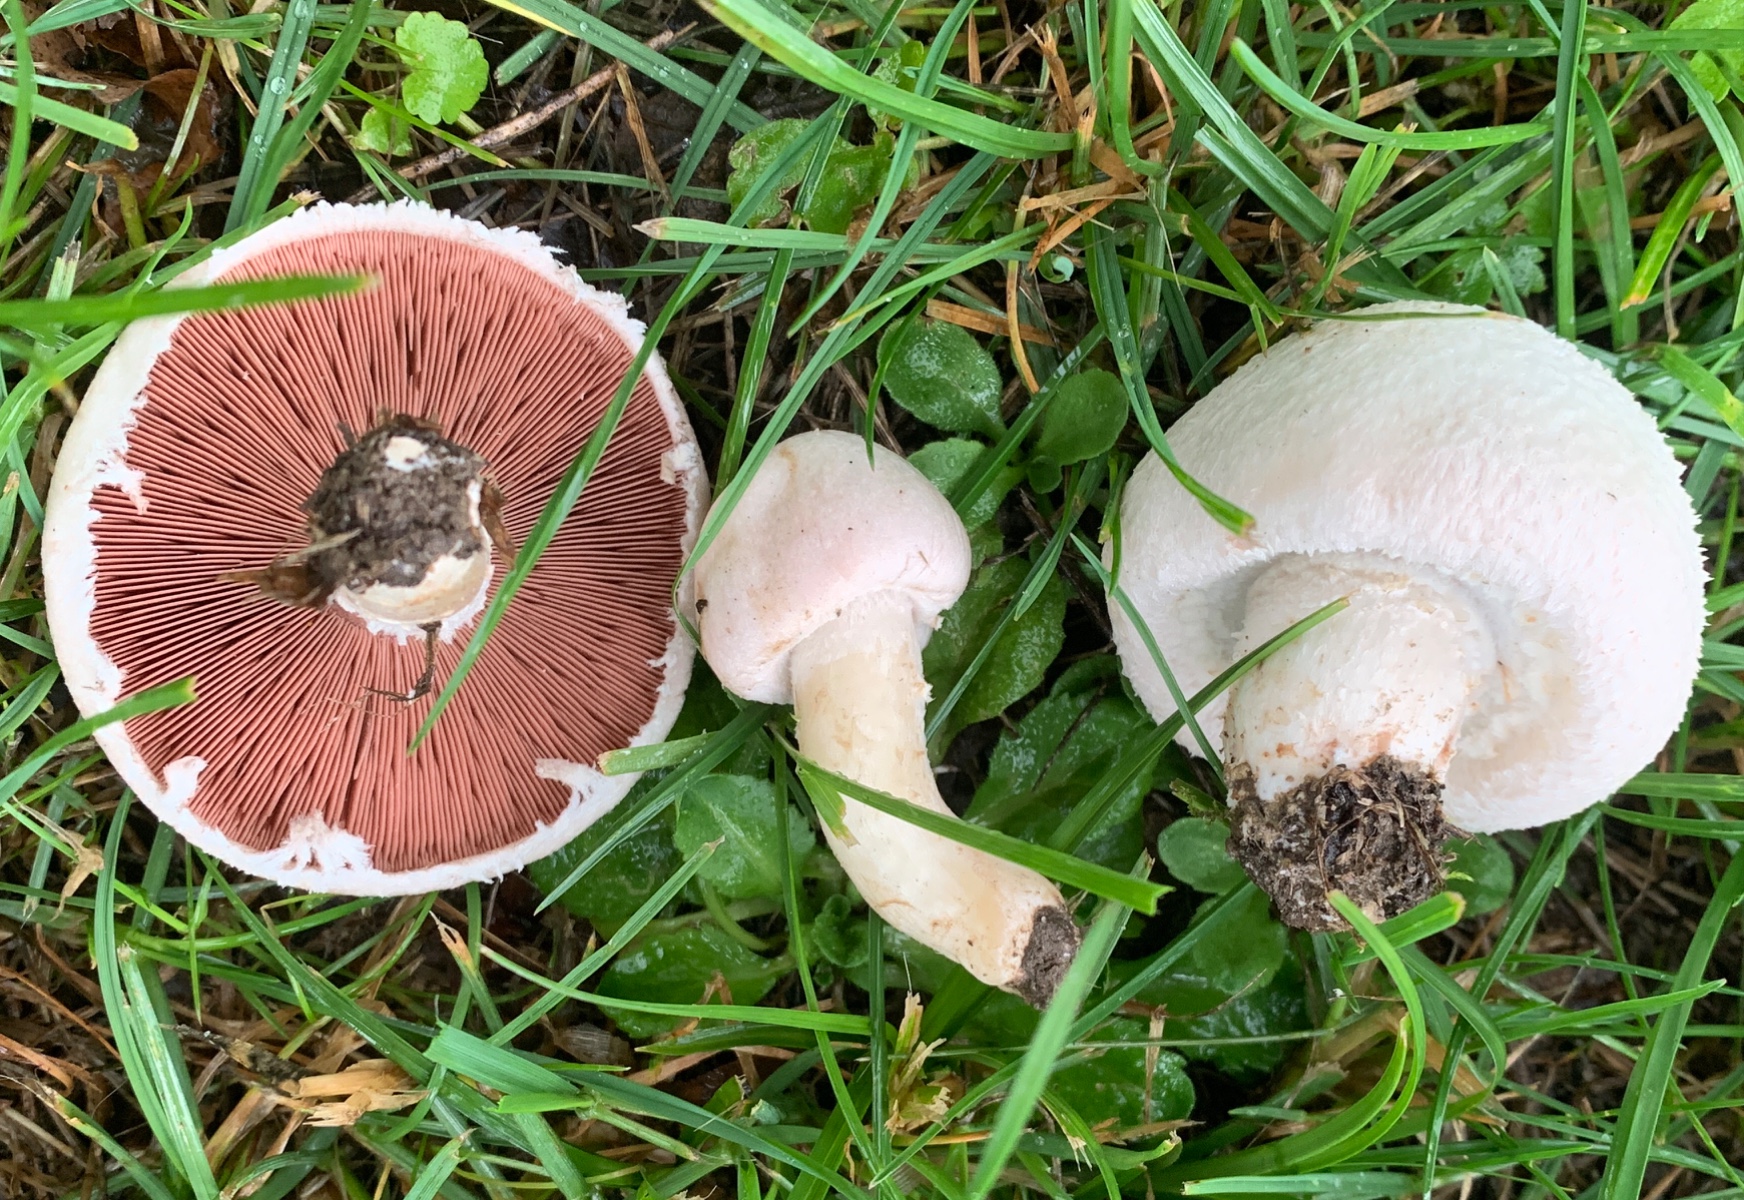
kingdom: Fungi
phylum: Basidiomycota
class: Agaricomycetes
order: Agaricales
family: Agaricaceae
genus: Agaricus
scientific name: Agaricus campestris
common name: mark-champignon
